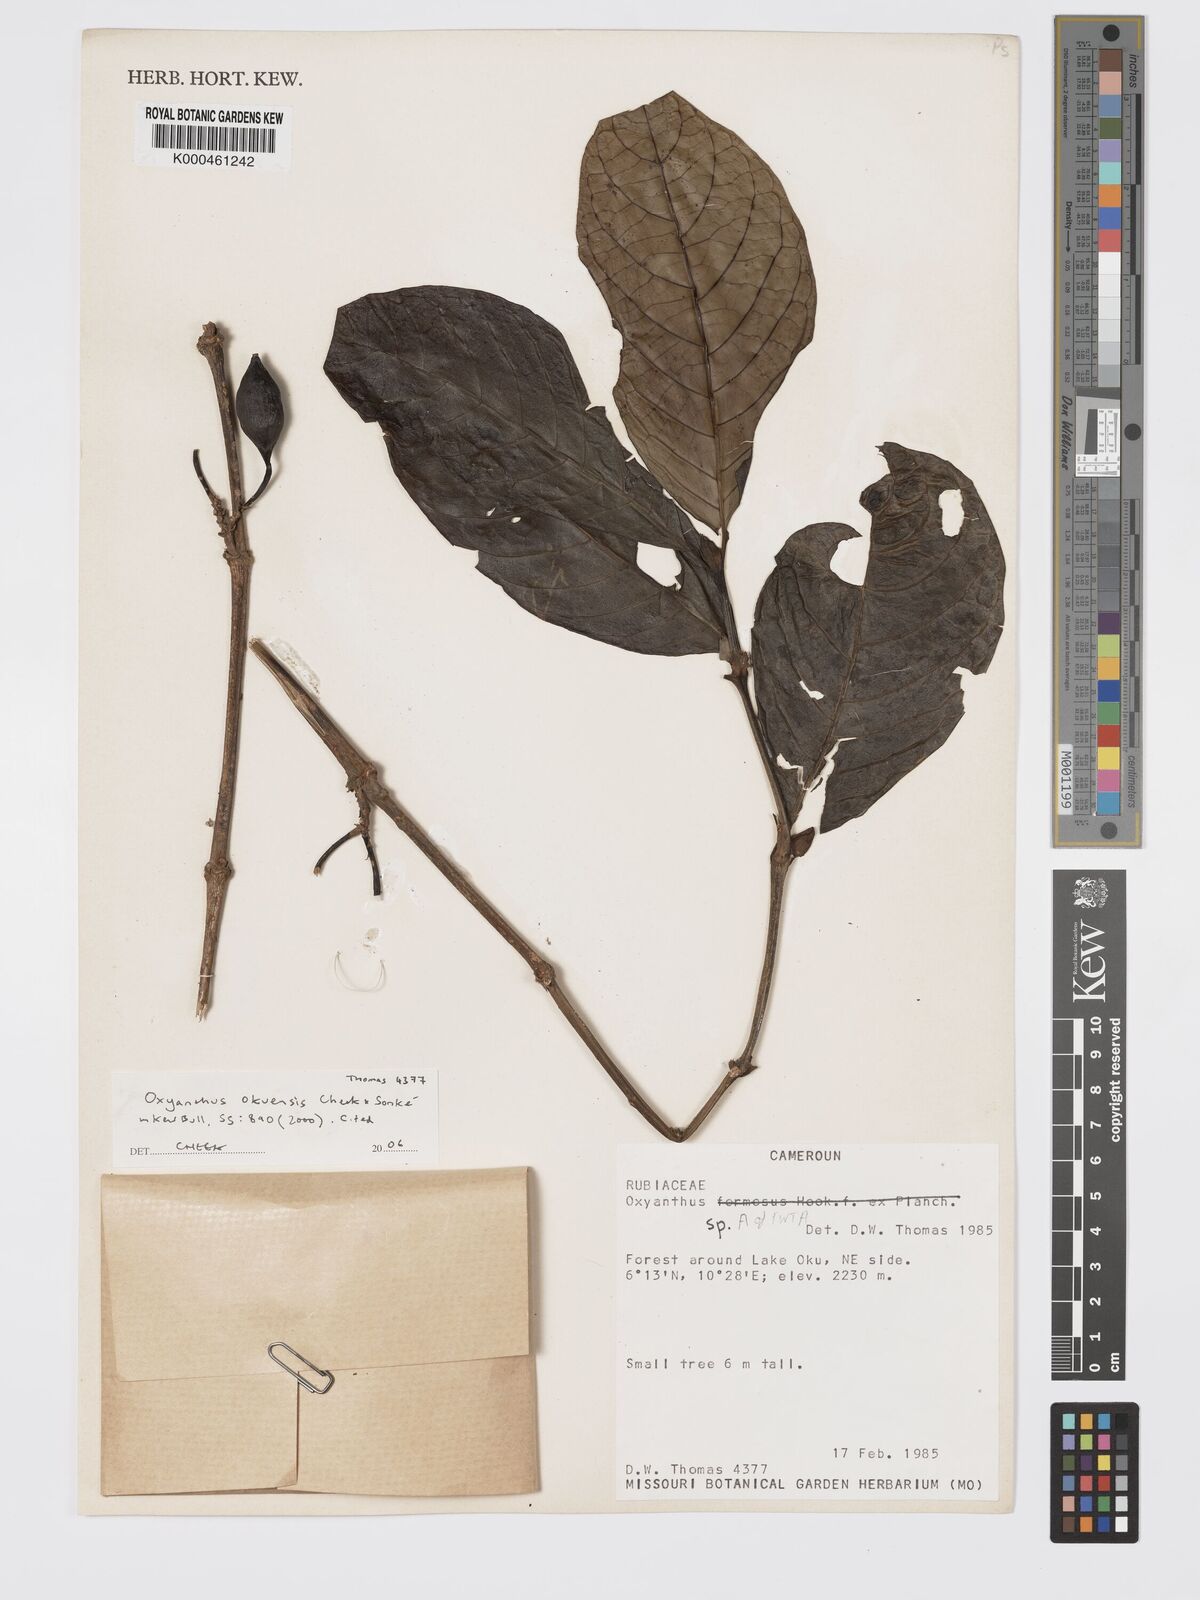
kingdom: Plantae
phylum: Tracheophyta
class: Magnoliopsida
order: Gentianales
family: Rubiaceae
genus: Oxyanthus
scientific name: Oxyanthus okuensis
